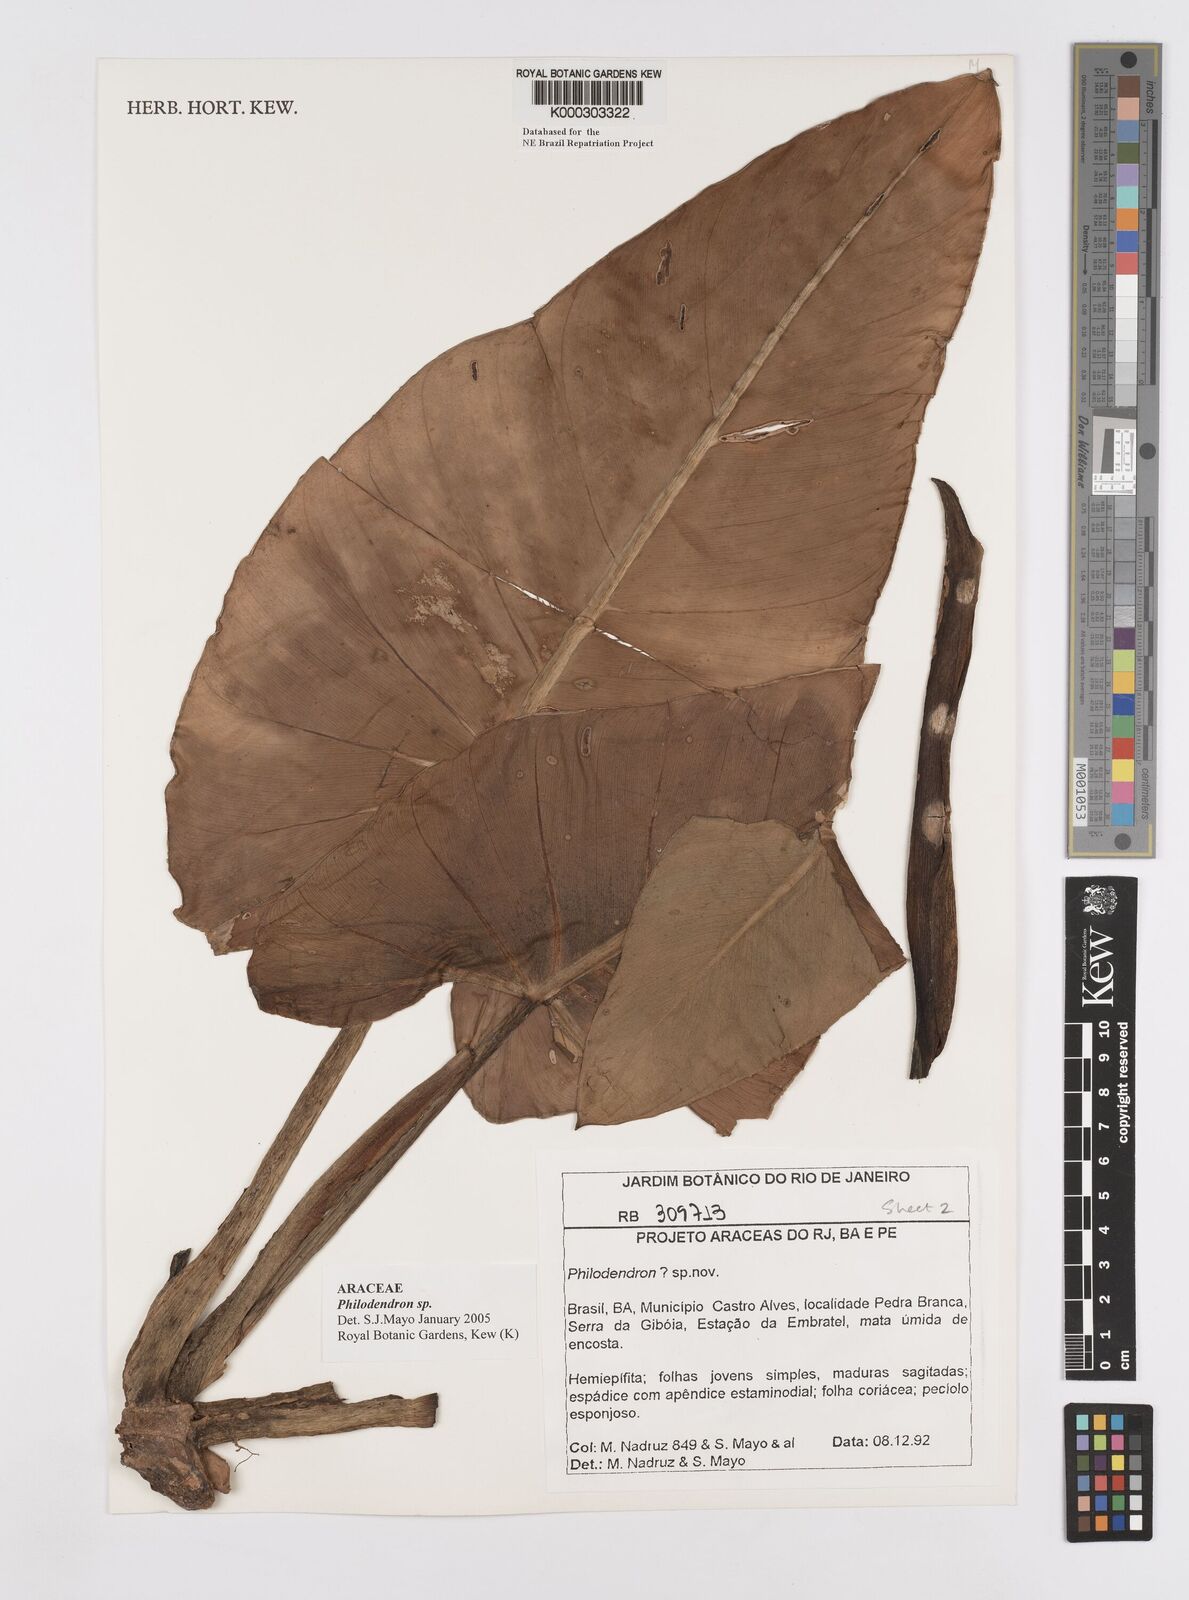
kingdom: Plantae
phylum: Tracheophyta
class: Liliopsida
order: Alismatales
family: Araceae
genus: Philodendron
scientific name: Philodendron
